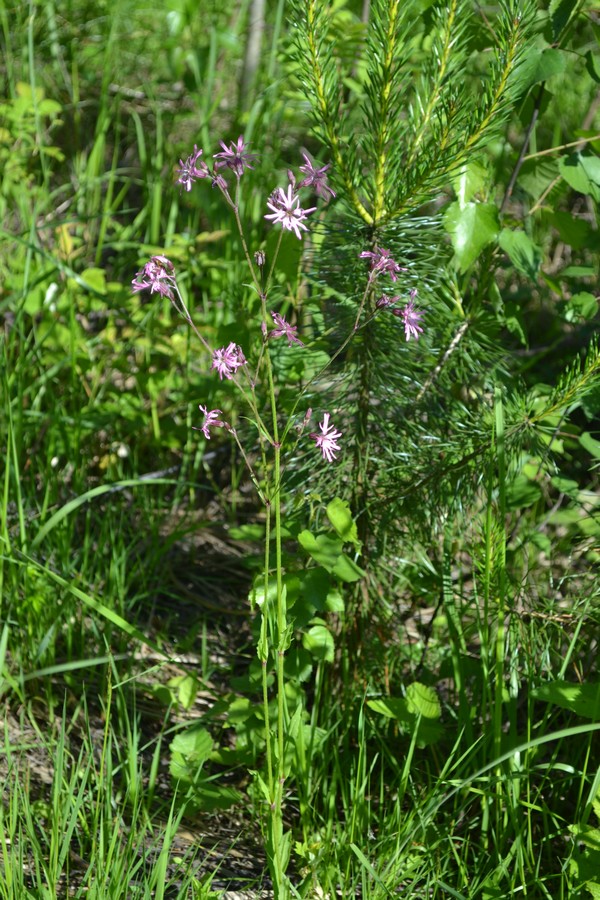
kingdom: Plantae
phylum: Tracheophyta
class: Magnoliopsida
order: Caryophyllales
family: Caryophyllaceae
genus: Silene
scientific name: Silene flos-cuculi
